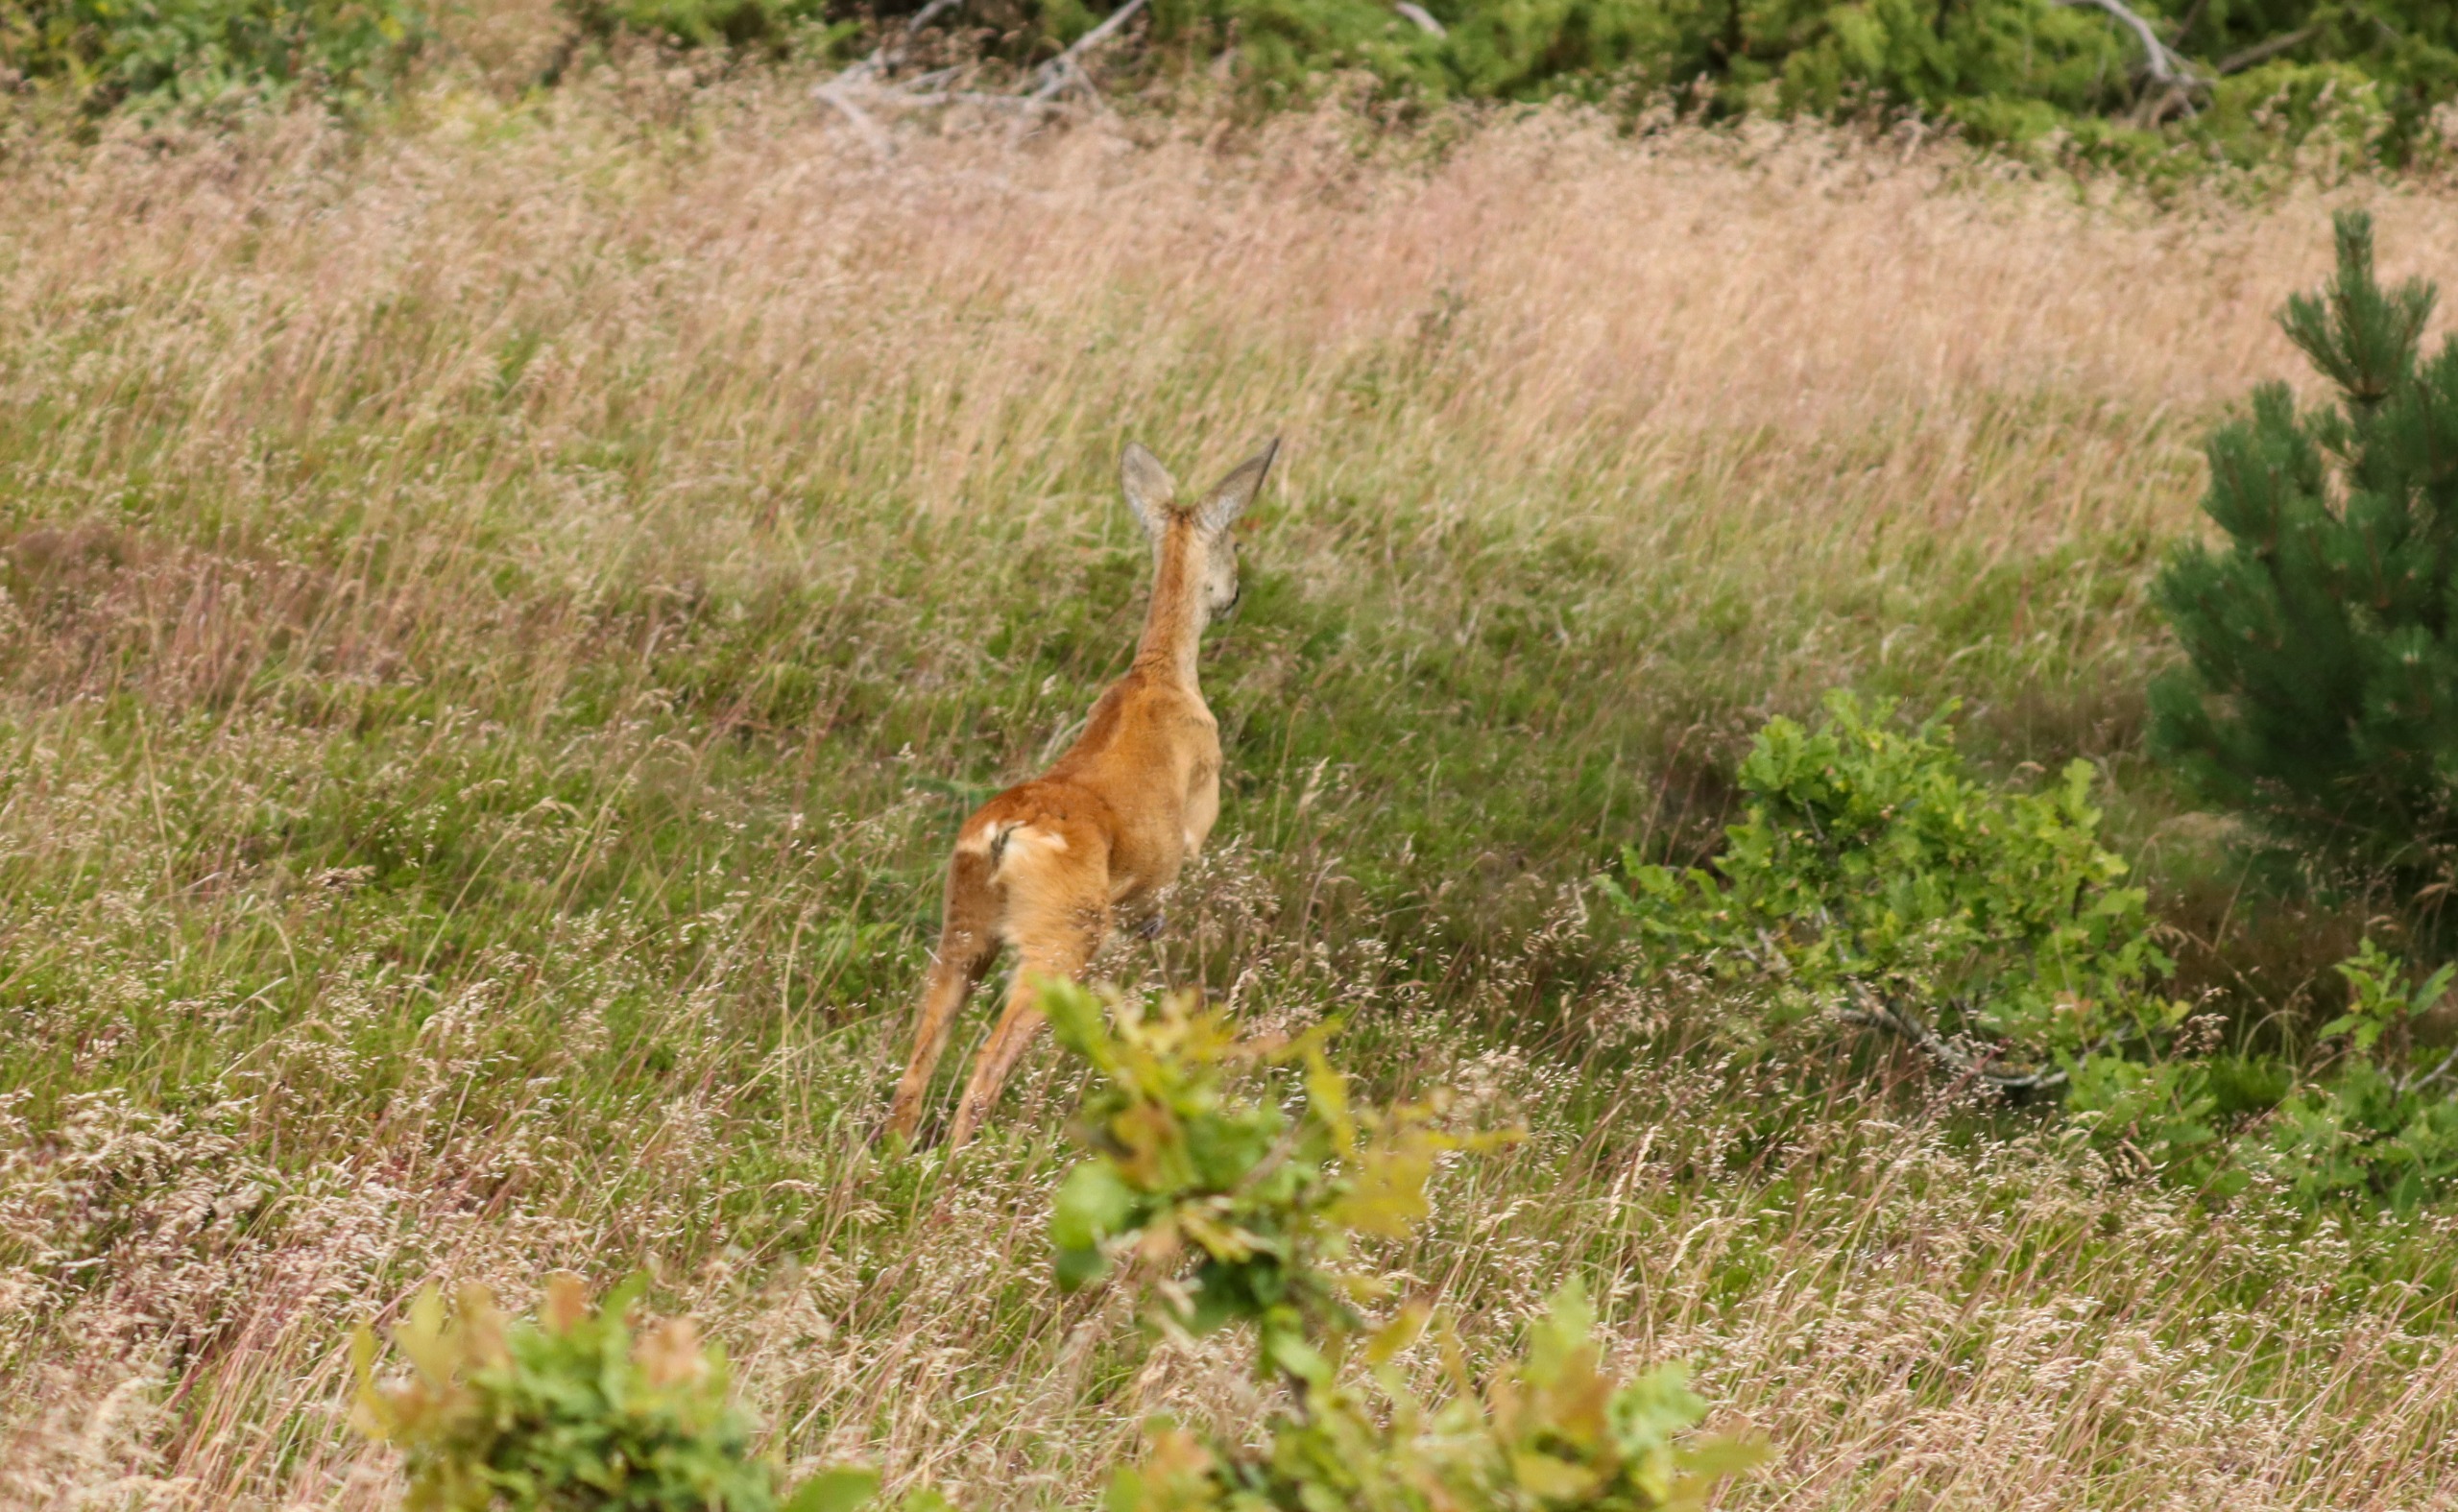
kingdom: Animalia
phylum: Chordata
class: Mammalia
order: Artiodactyla
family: Cervidae
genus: Capreolus
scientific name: Capreolus capreolus
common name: Rådyr
